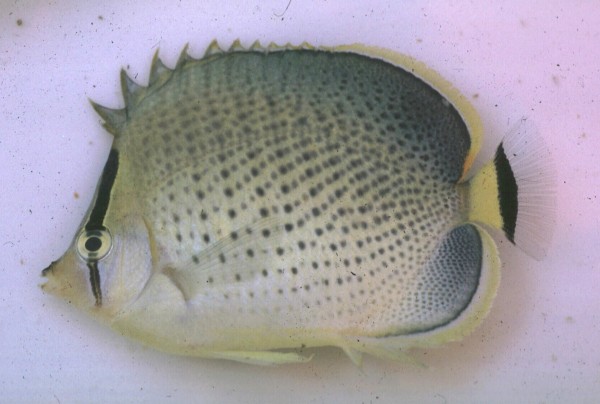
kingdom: Animalia
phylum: Chordata
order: Perciformes
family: Chaetodontidae
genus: Chaetodon
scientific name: Chaetodon guttatissimus
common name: Spotted butterflyfish
